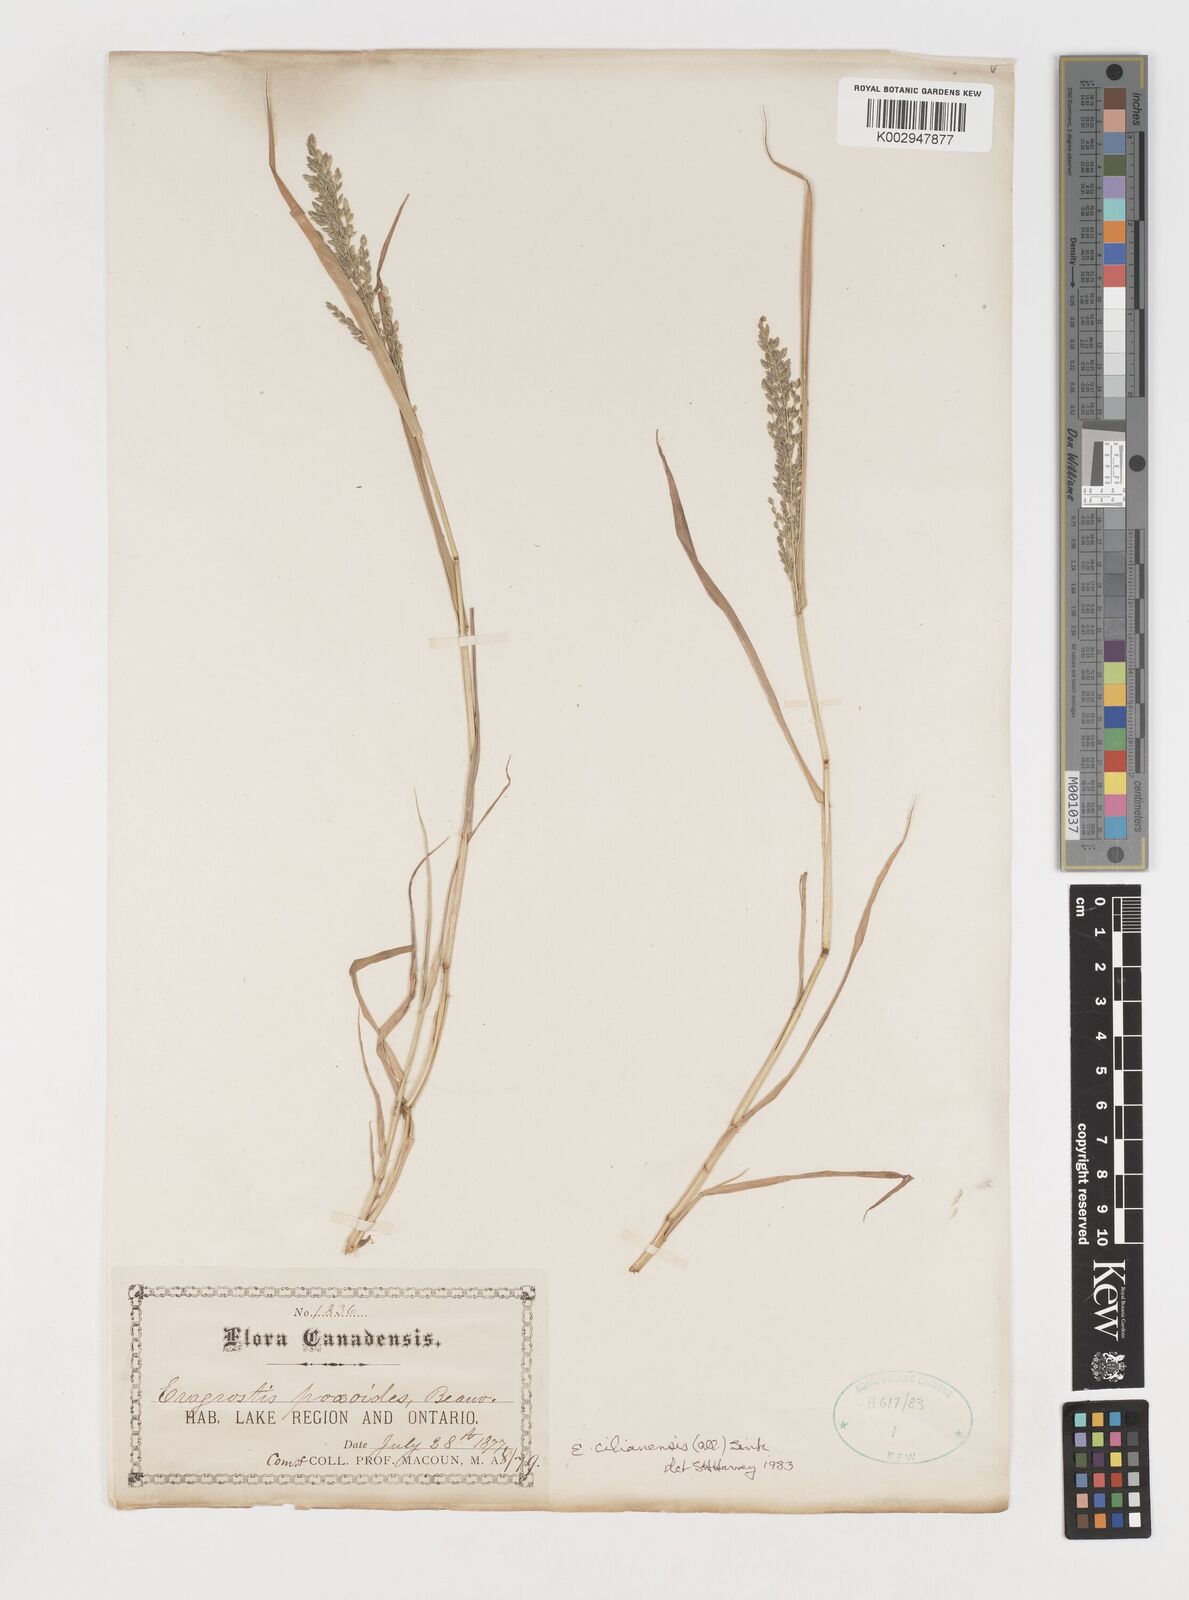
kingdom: Plantae
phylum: Tracheophyta
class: Liliopsida
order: Poales
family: Poaceae
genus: Eragrostis
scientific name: Eragrostis cilianensis
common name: Stinkgrass
